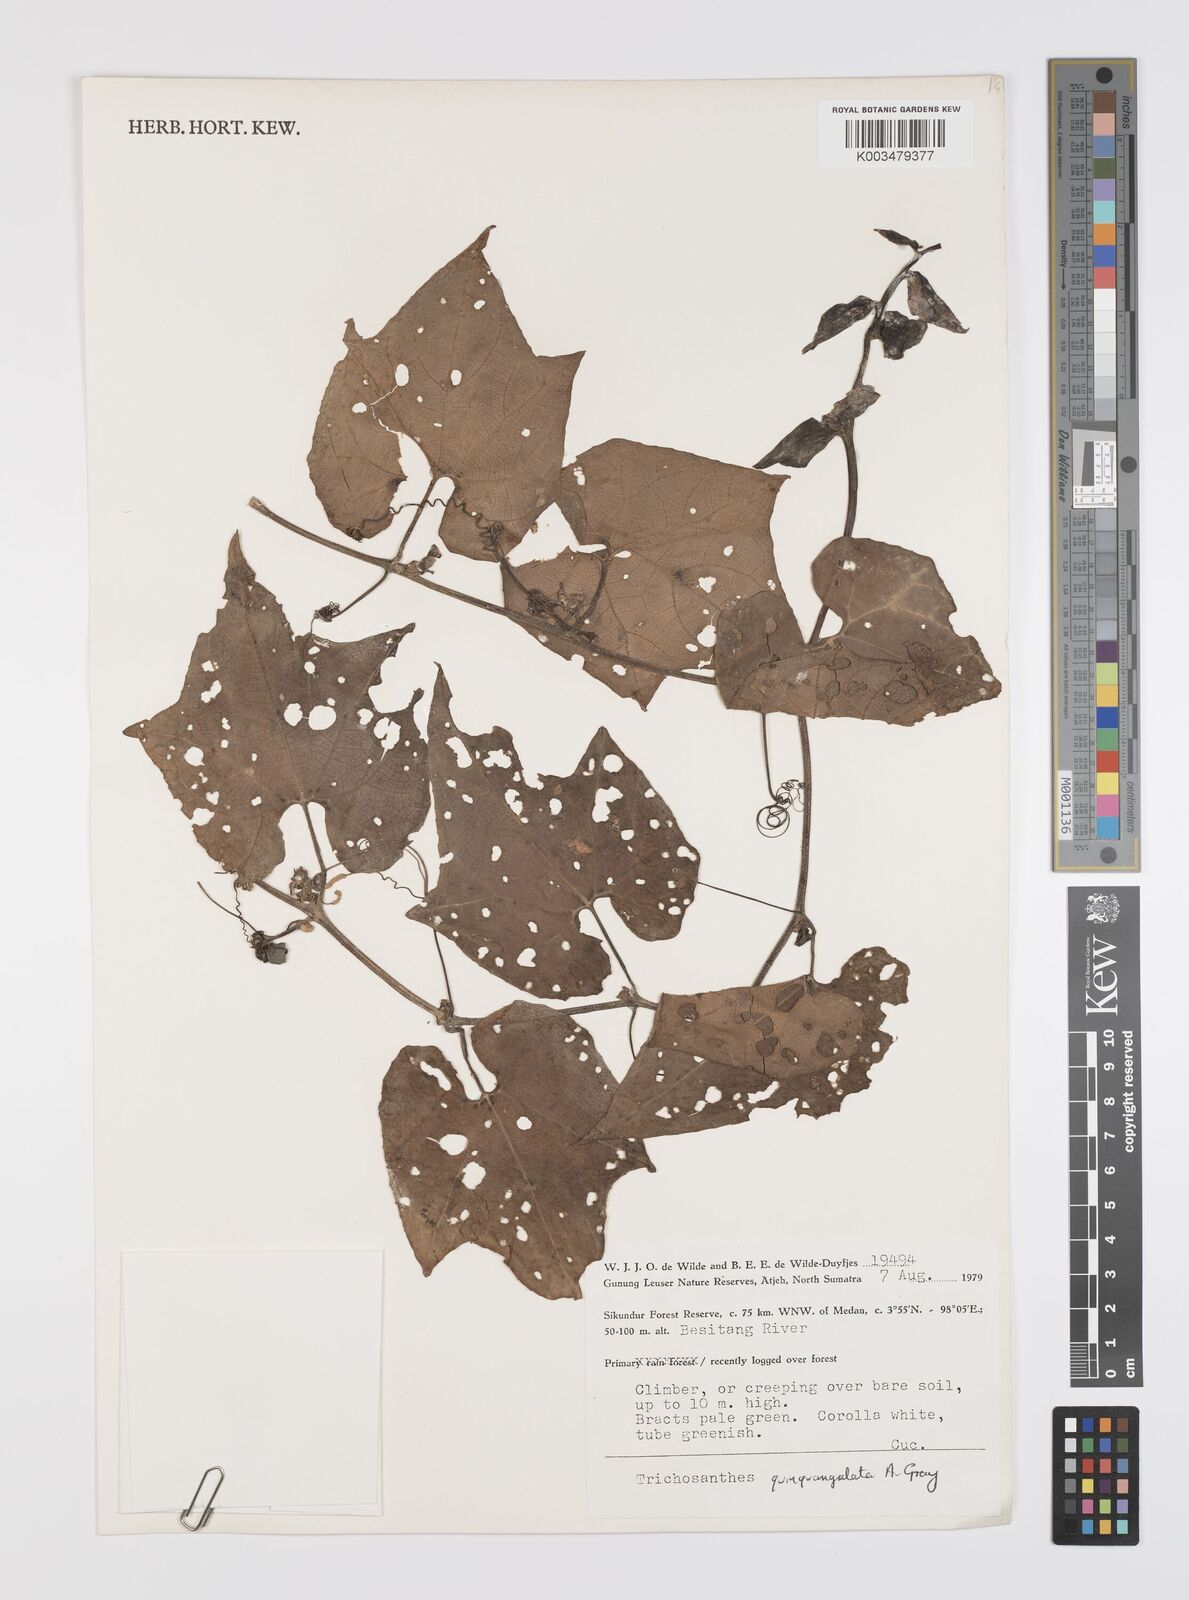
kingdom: Plantae
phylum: Tracheophyta
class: Magnoliopsida
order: Cucurbitales
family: Cucurbitaceae
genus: Trichosanthes
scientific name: Trichosanthes tricuspidata
